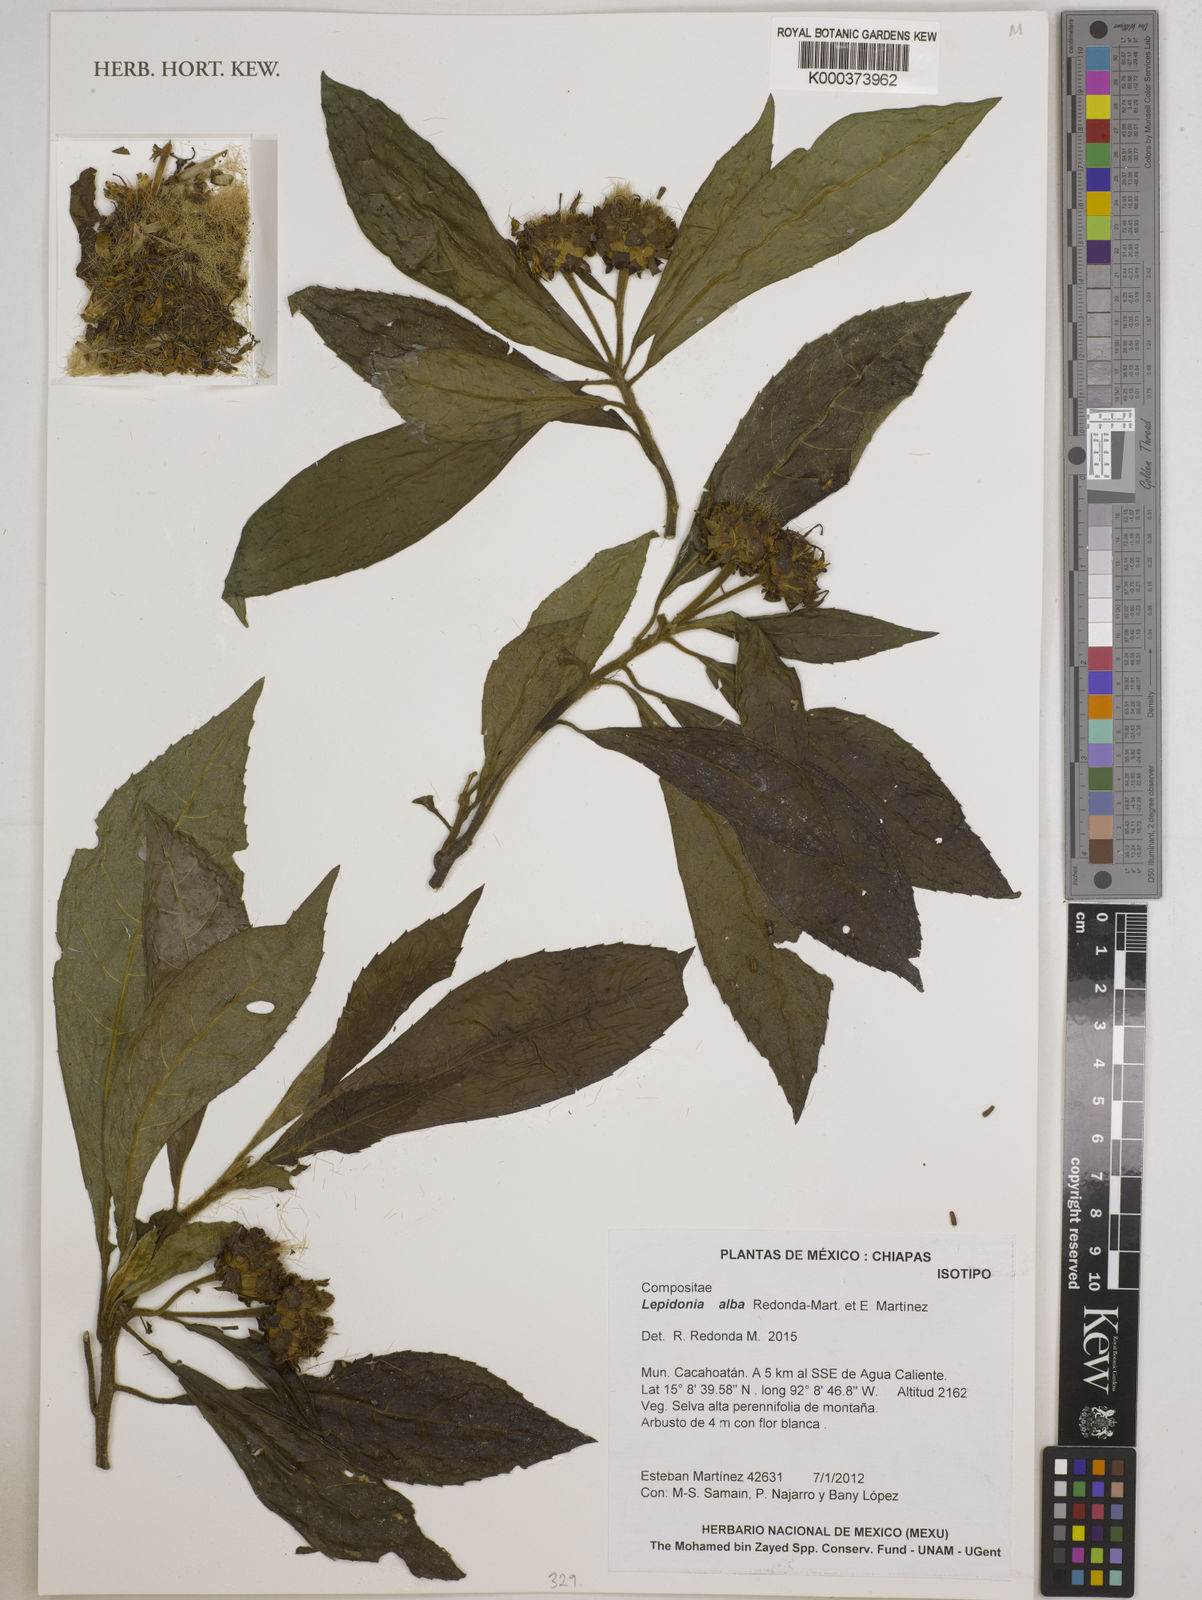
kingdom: Plantae
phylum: Tracheophyta
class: Magnoliopsida
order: Asterales
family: Asteraceae
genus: Lepidonia
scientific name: Lepidonia alba
